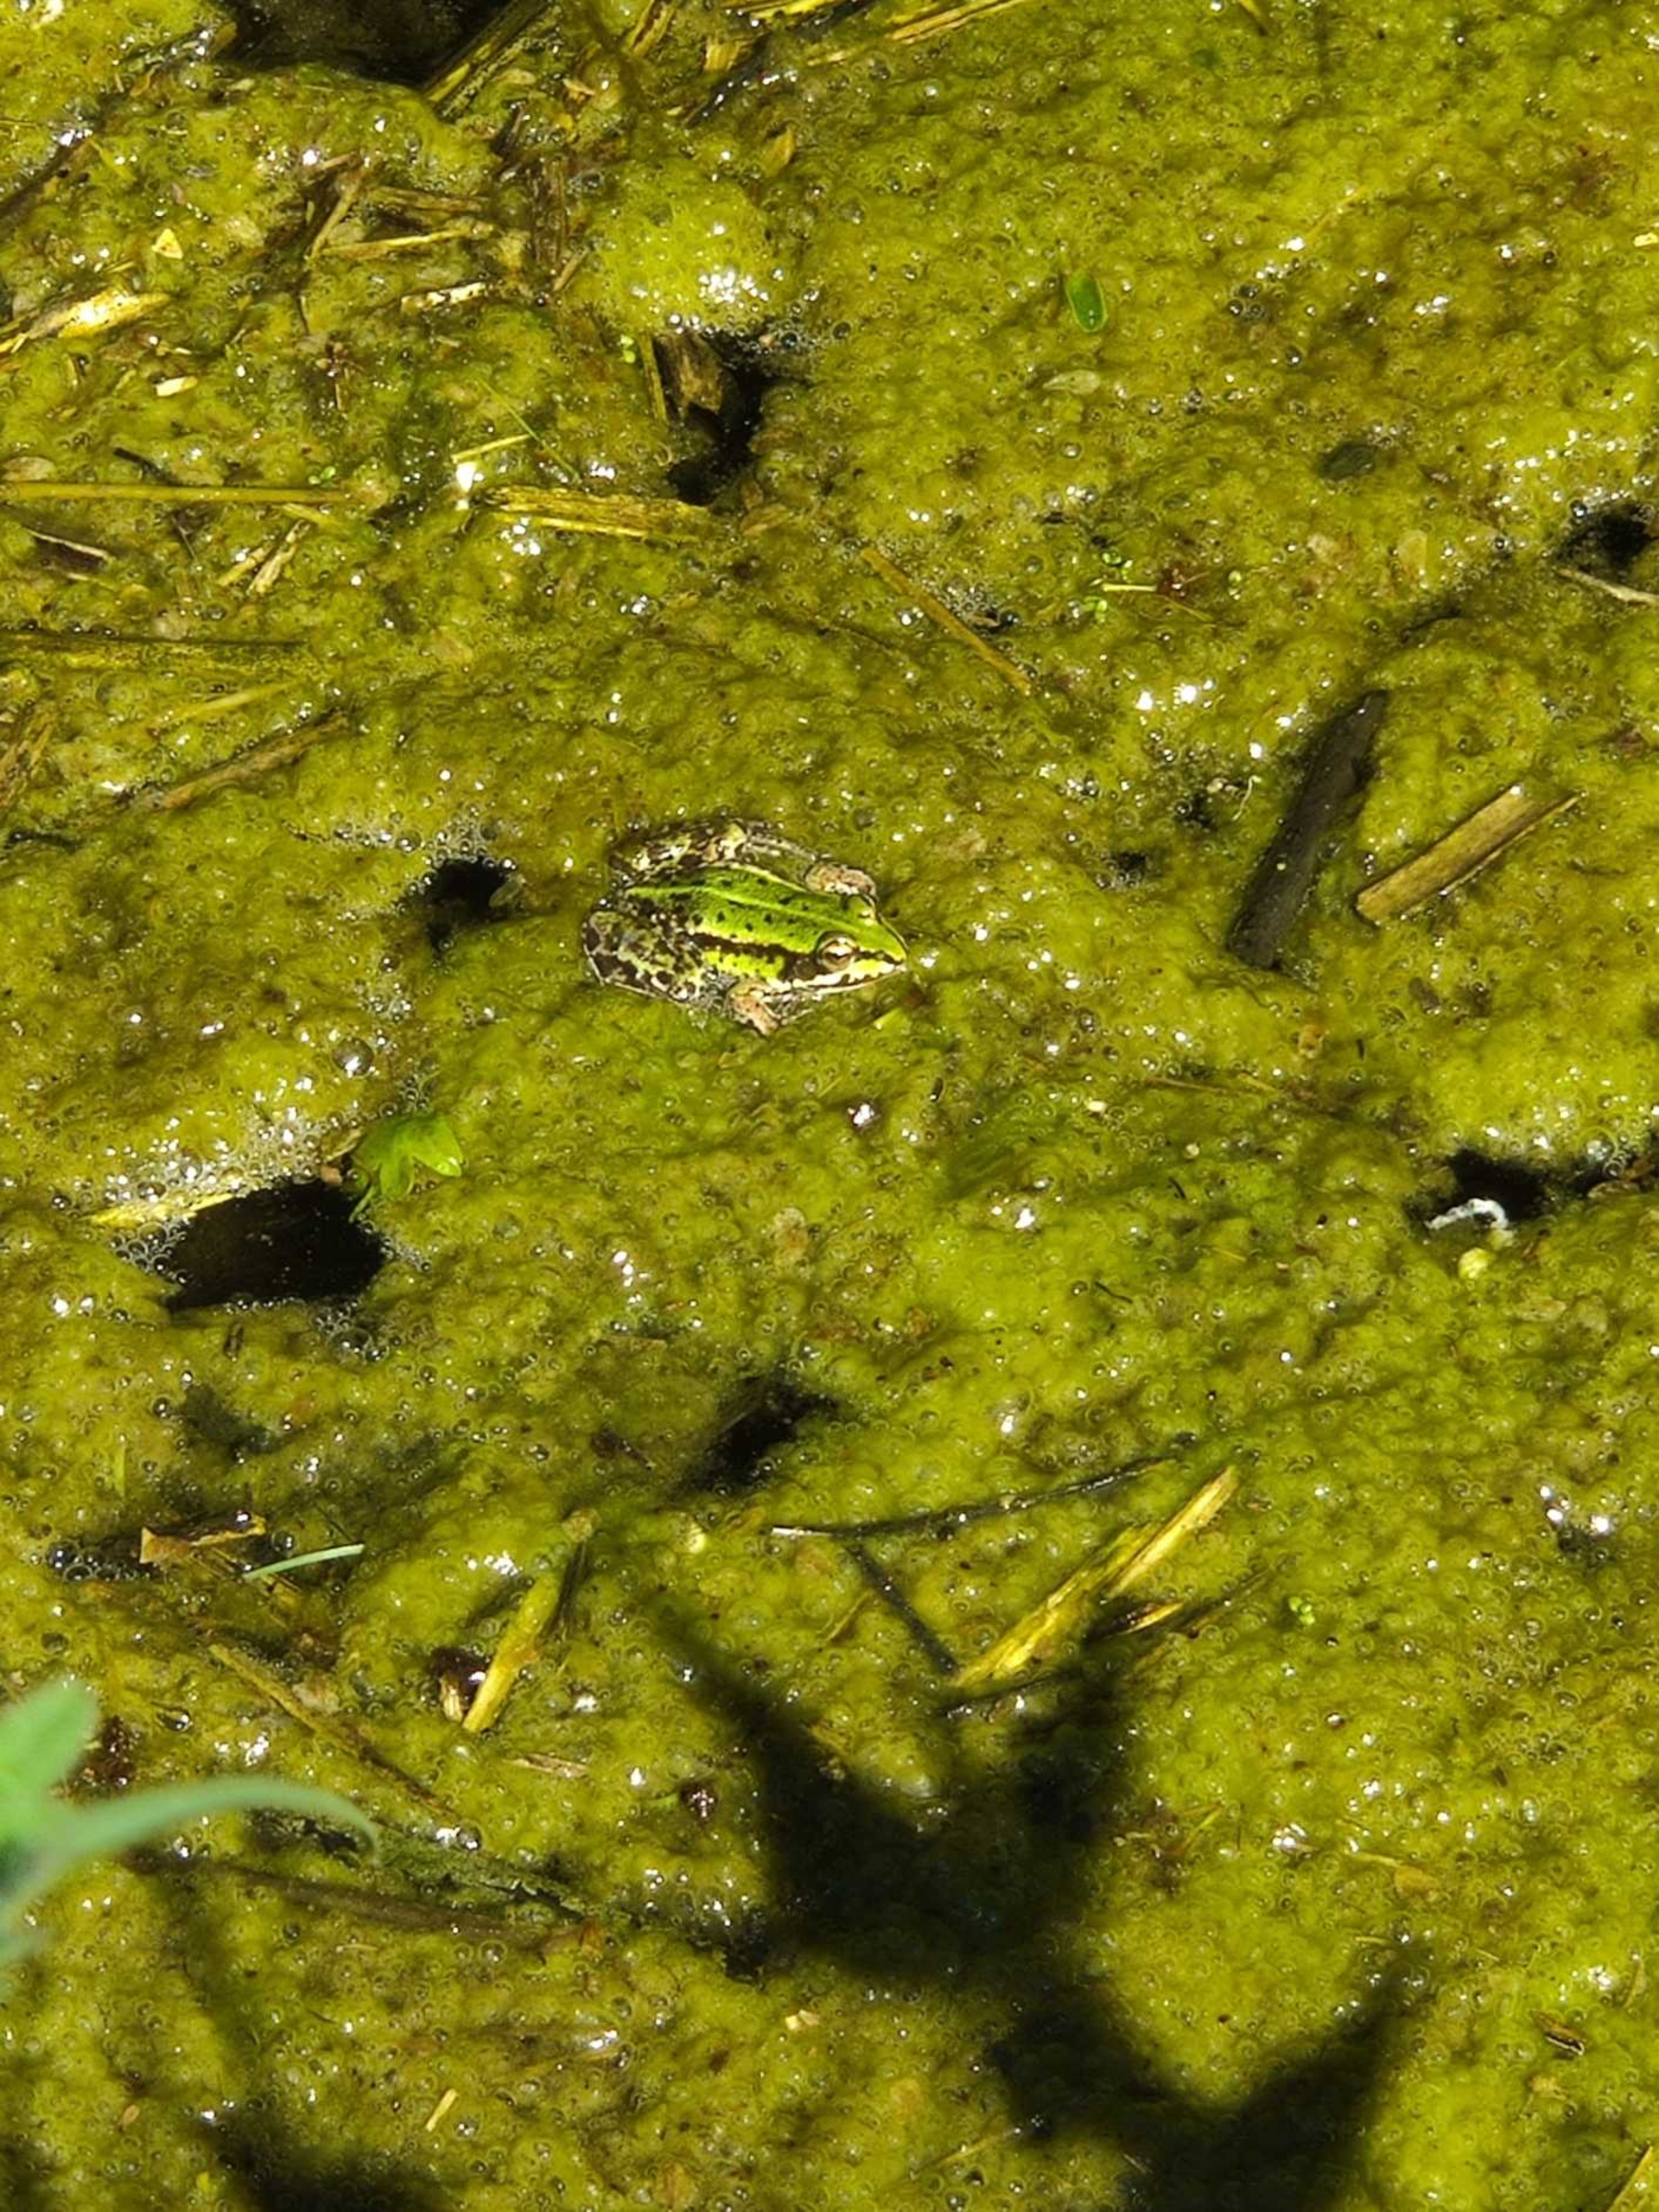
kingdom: Animalia
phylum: Chordata
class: Amphibia
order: Anura
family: Ranidae
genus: Pelophylax
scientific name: Pelophylax lessonae
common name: Grøn frø
